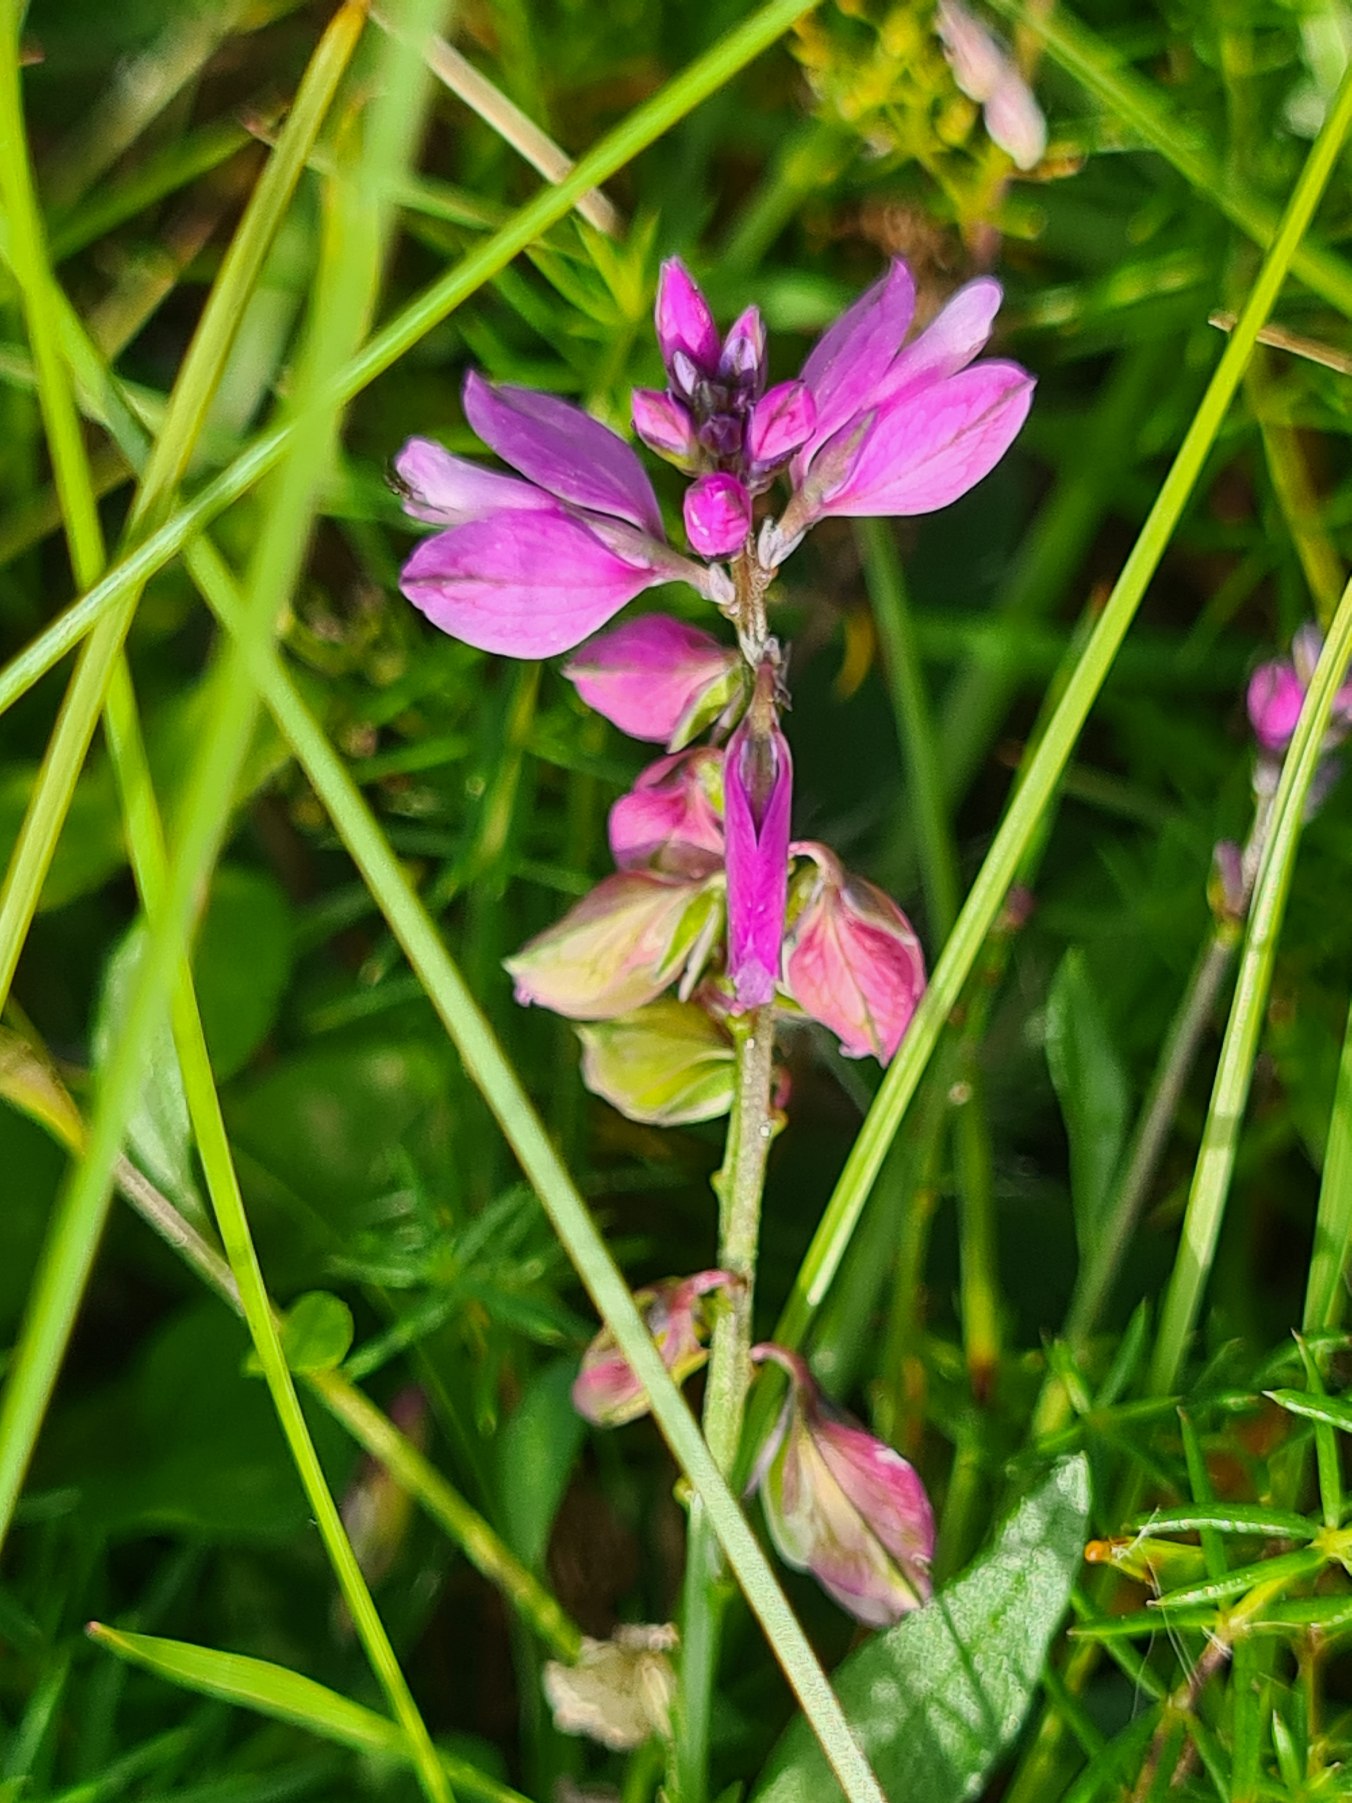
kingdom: Plantae
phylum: Tracheophyta
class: Magnoliopsida
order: Fabales
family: Polygalaceae
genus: Polygala
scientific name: Polygala vulgaris
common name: Almindelig mælkeurt
